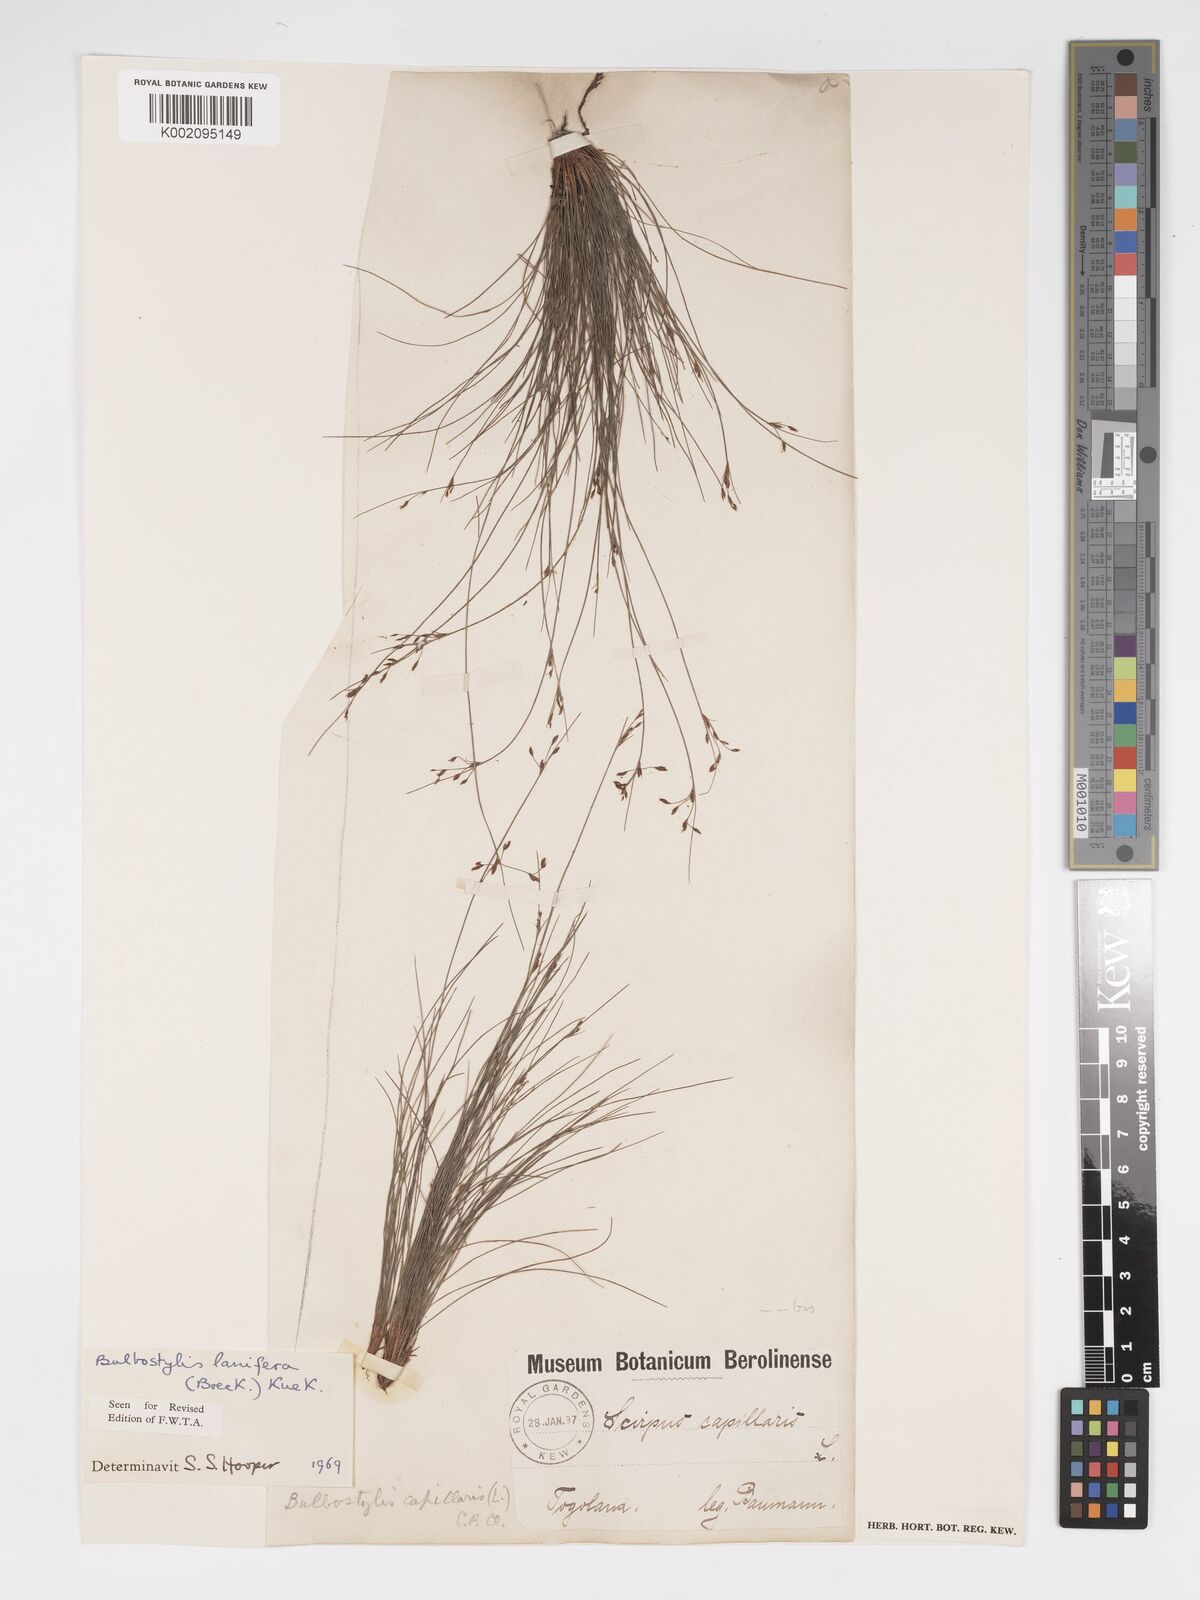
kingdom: Plantae
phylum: Tracheophyta
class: Liliopsida
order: Poales
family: Cyperaceae
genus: Bulbostylis
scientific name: Bulbostylis lanifera
